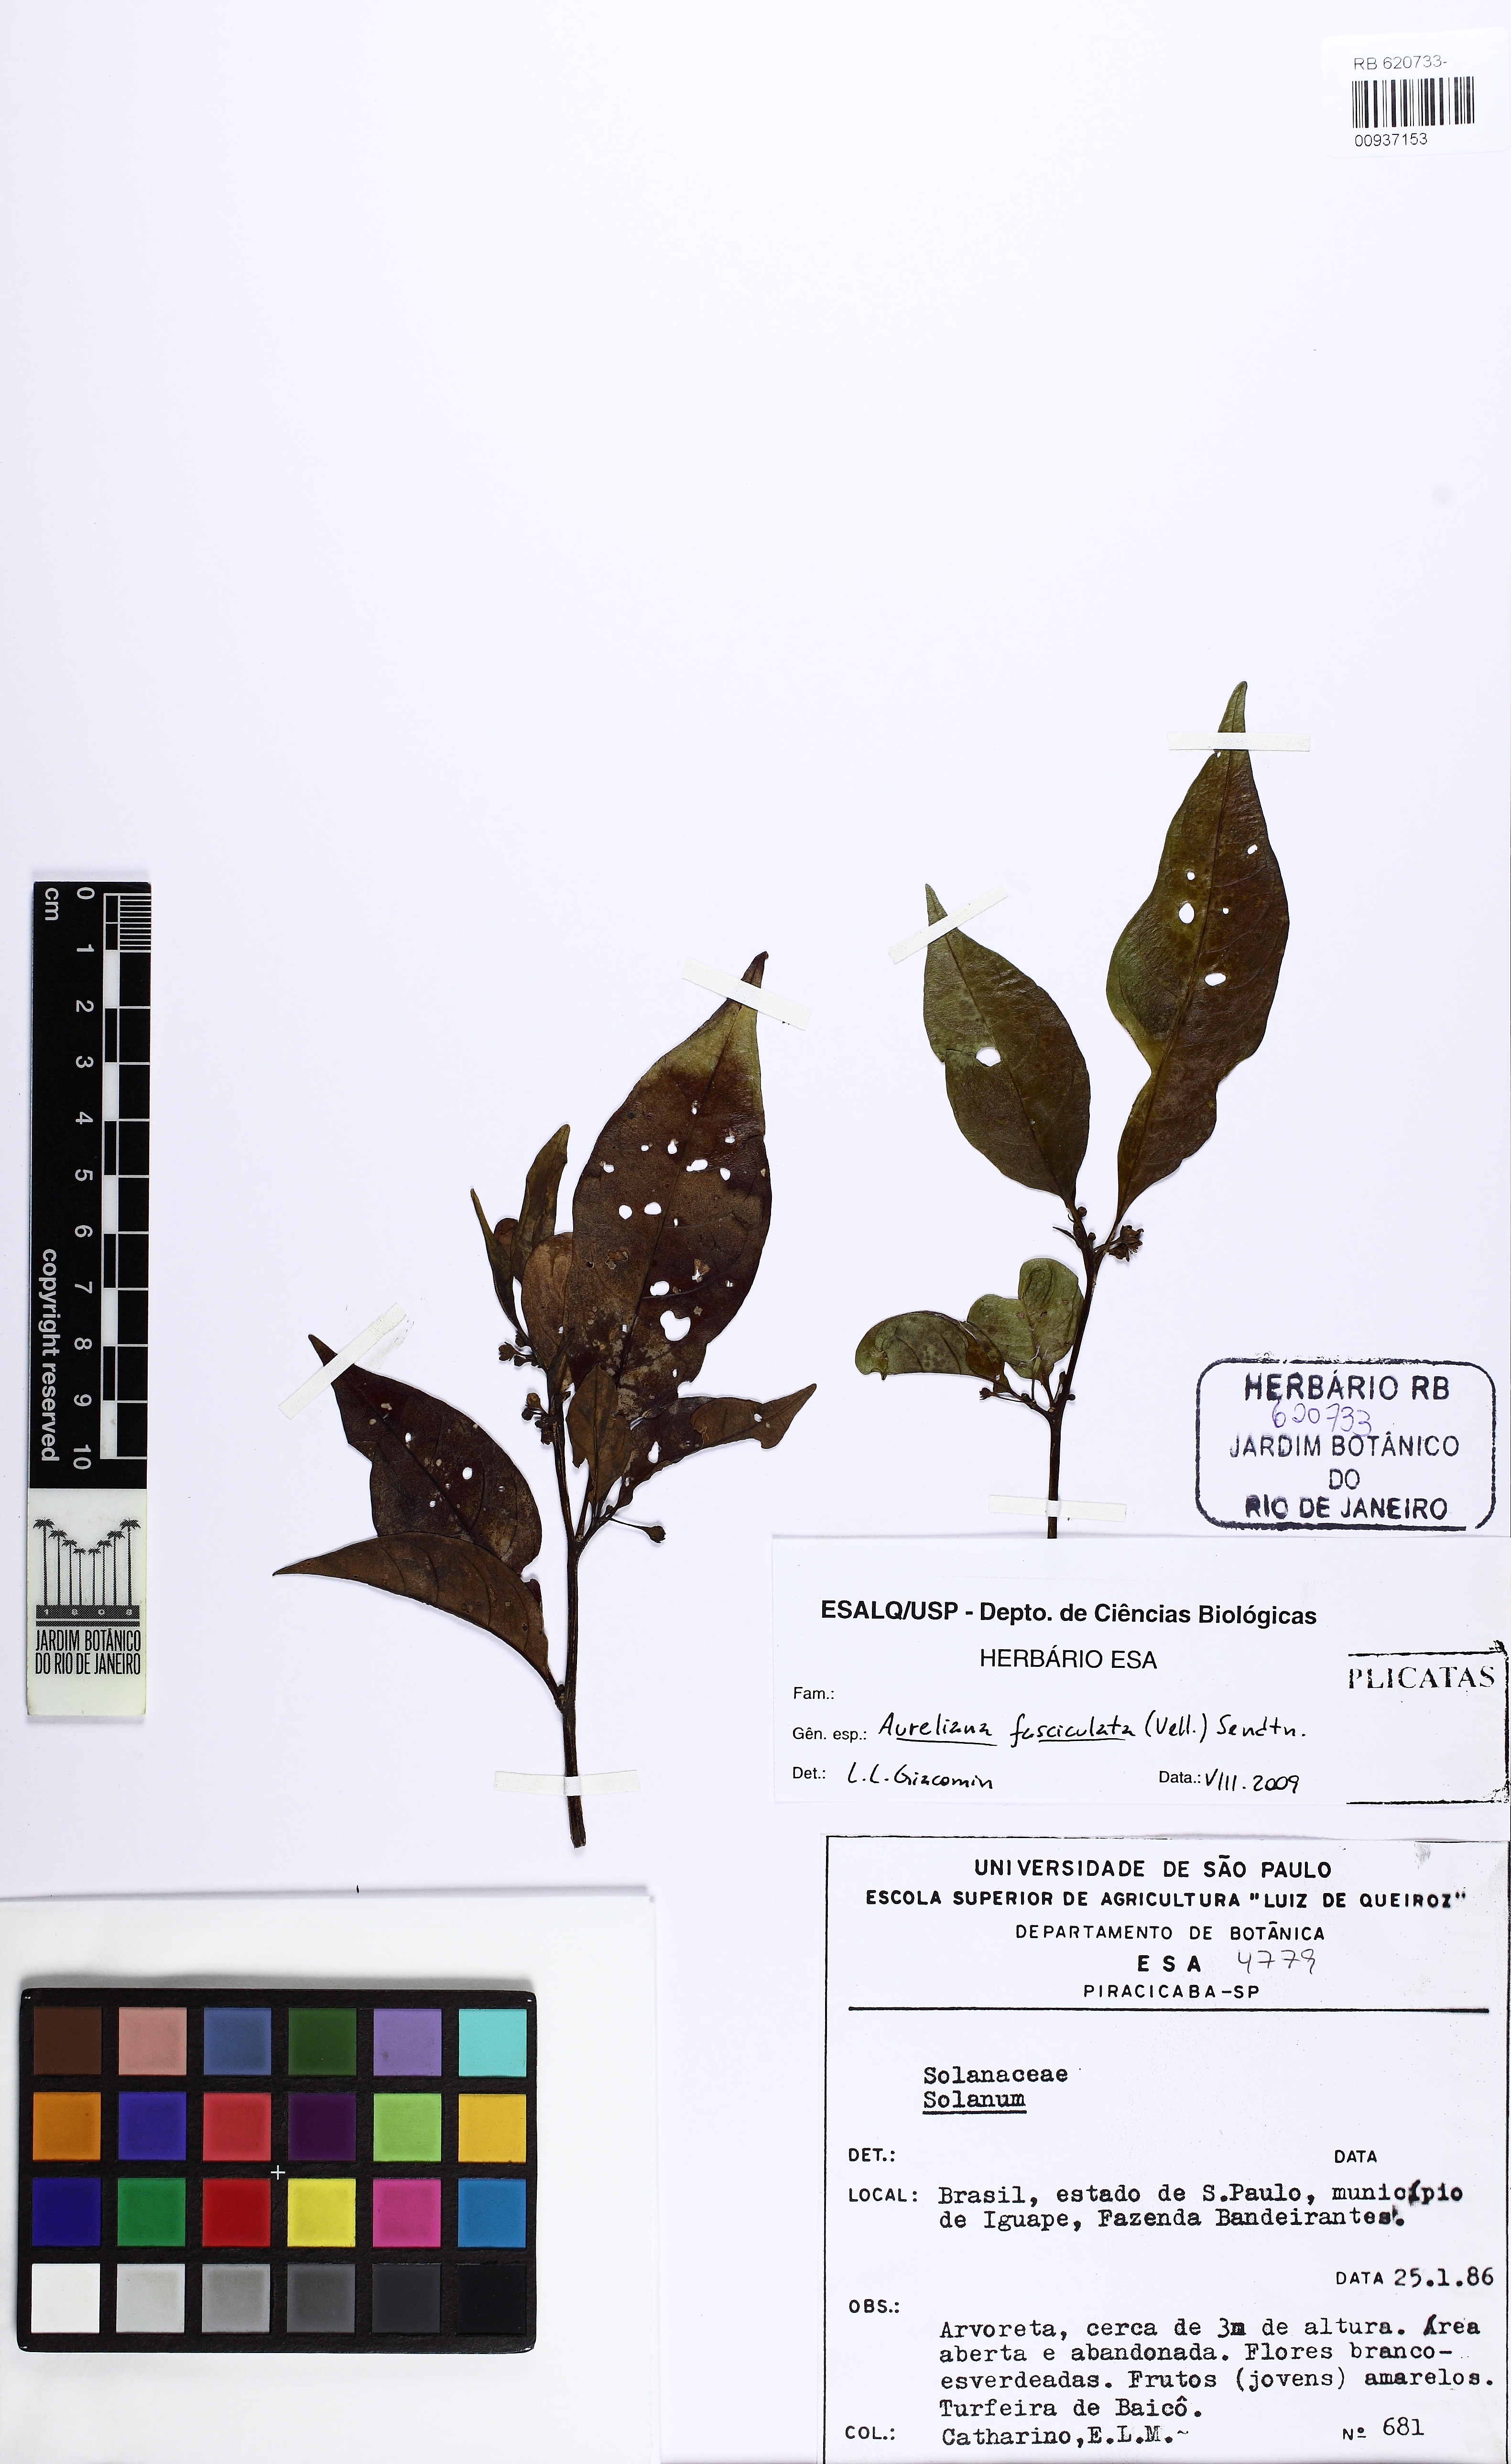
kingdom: Plantae
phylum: Tracheophyta
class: Magnoliopsida
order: Solanales
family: Solanaceae
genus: Athenaea
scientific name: Athenaea fasciculata
